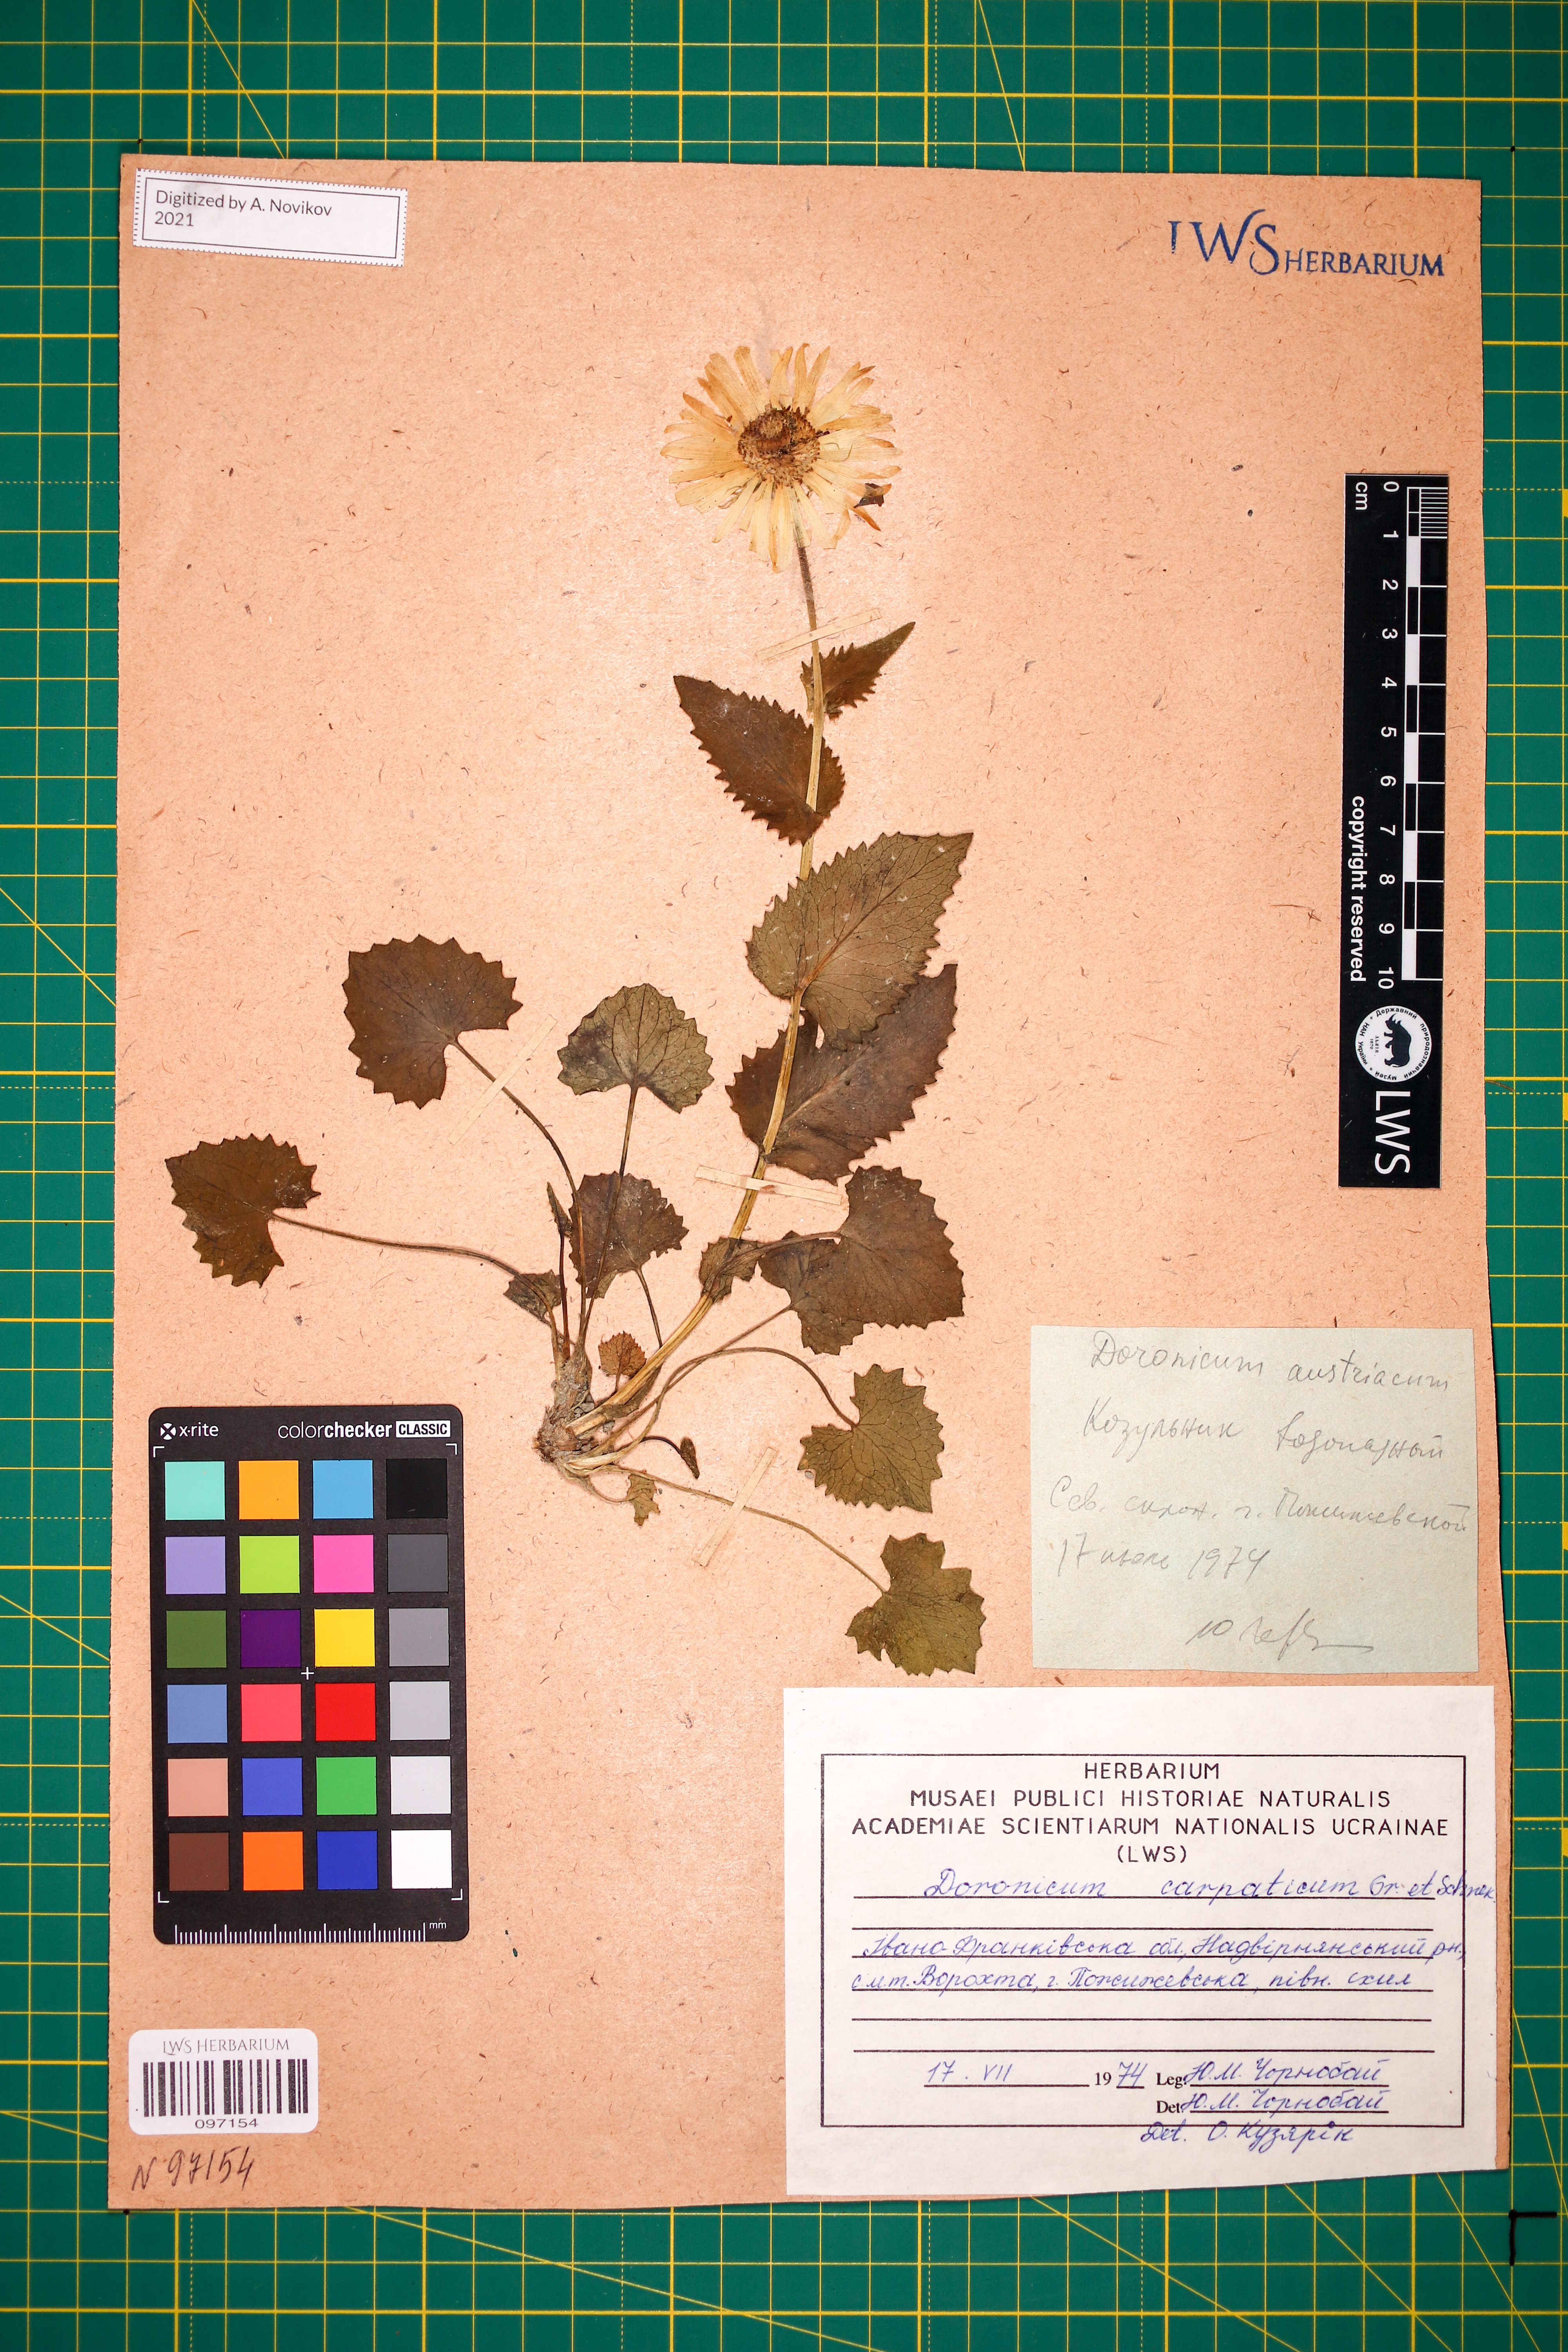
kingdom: Plantae
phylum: Tracheophyta
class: Magnoliopsida
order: Asterales
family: Asteraceae
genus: Doronicum
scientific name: Doronicum carpaticum
